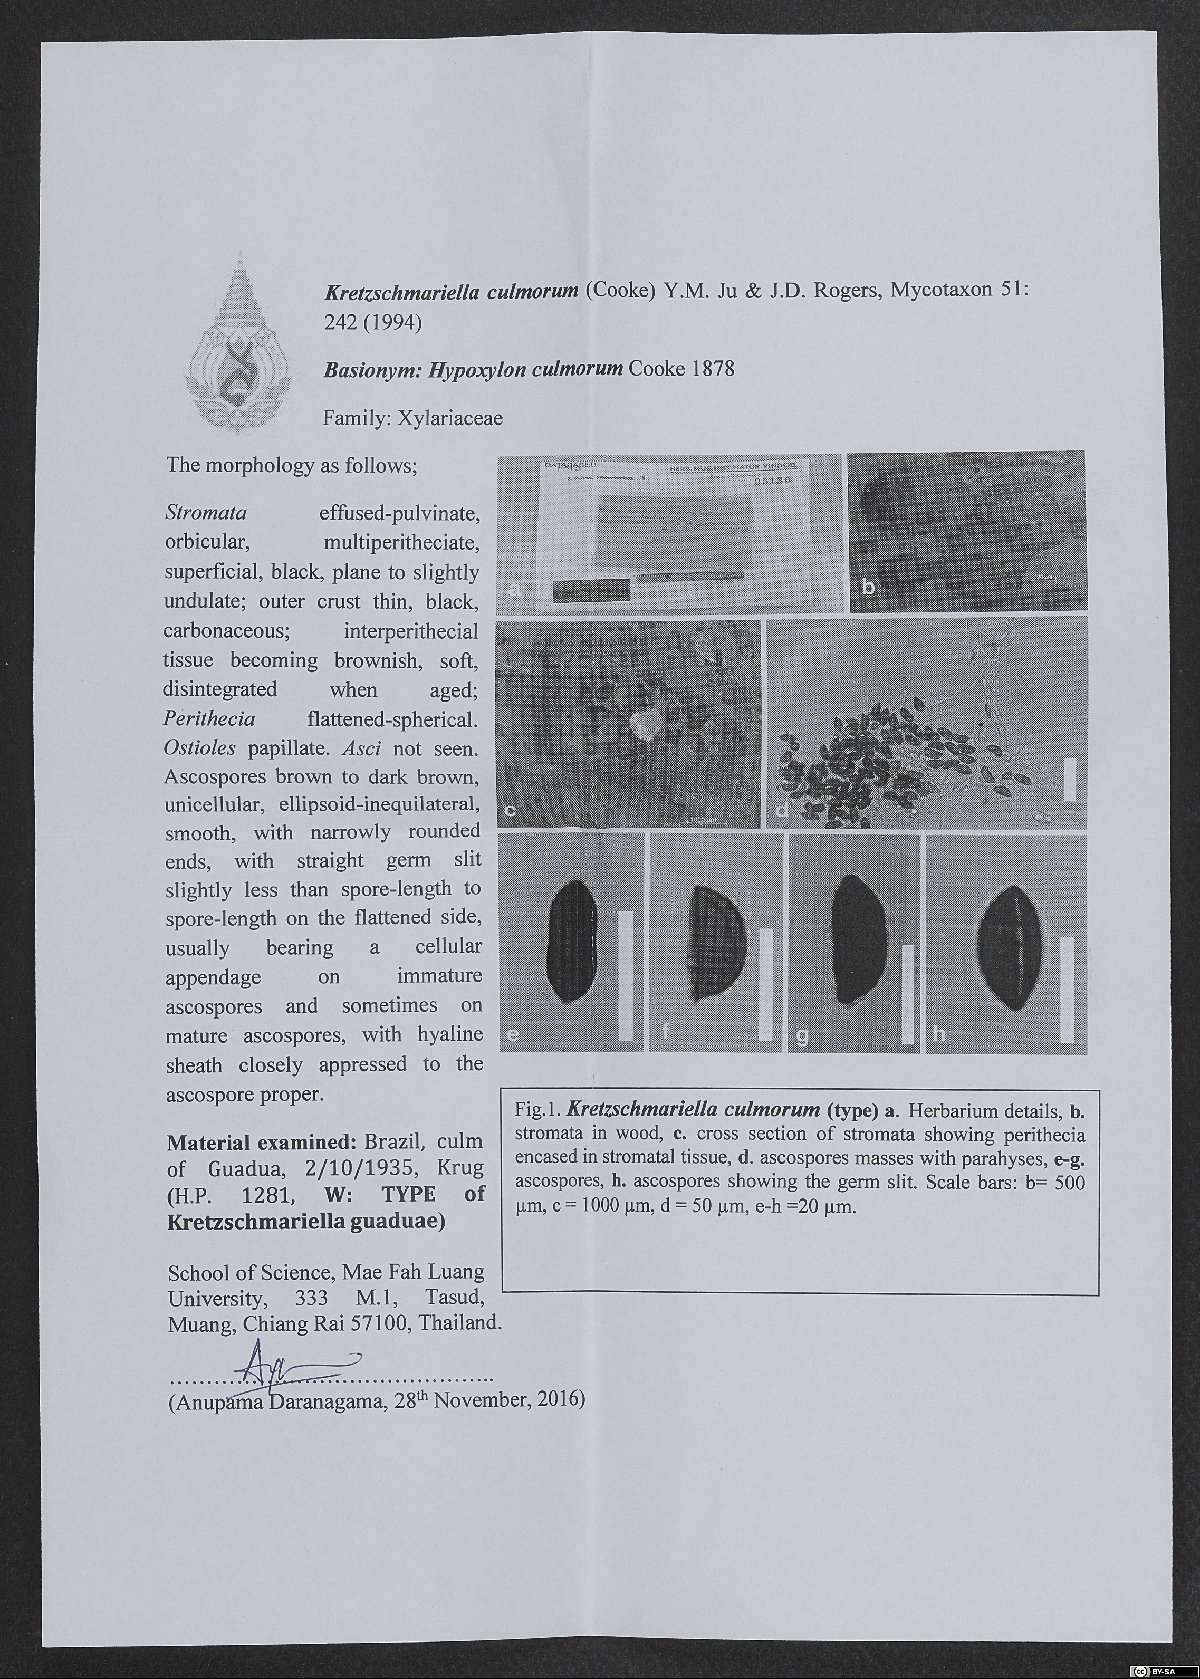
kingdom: Fungi
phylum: Ascomycota
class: Sordariomycetes
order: Xylariales
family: Xylariaceae
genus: Kretzschmariella
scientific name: Kretzschmariella
